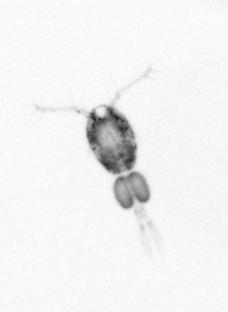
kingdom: Animalia
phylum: Arthropoda
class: Copepoda
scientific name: Copepoda
